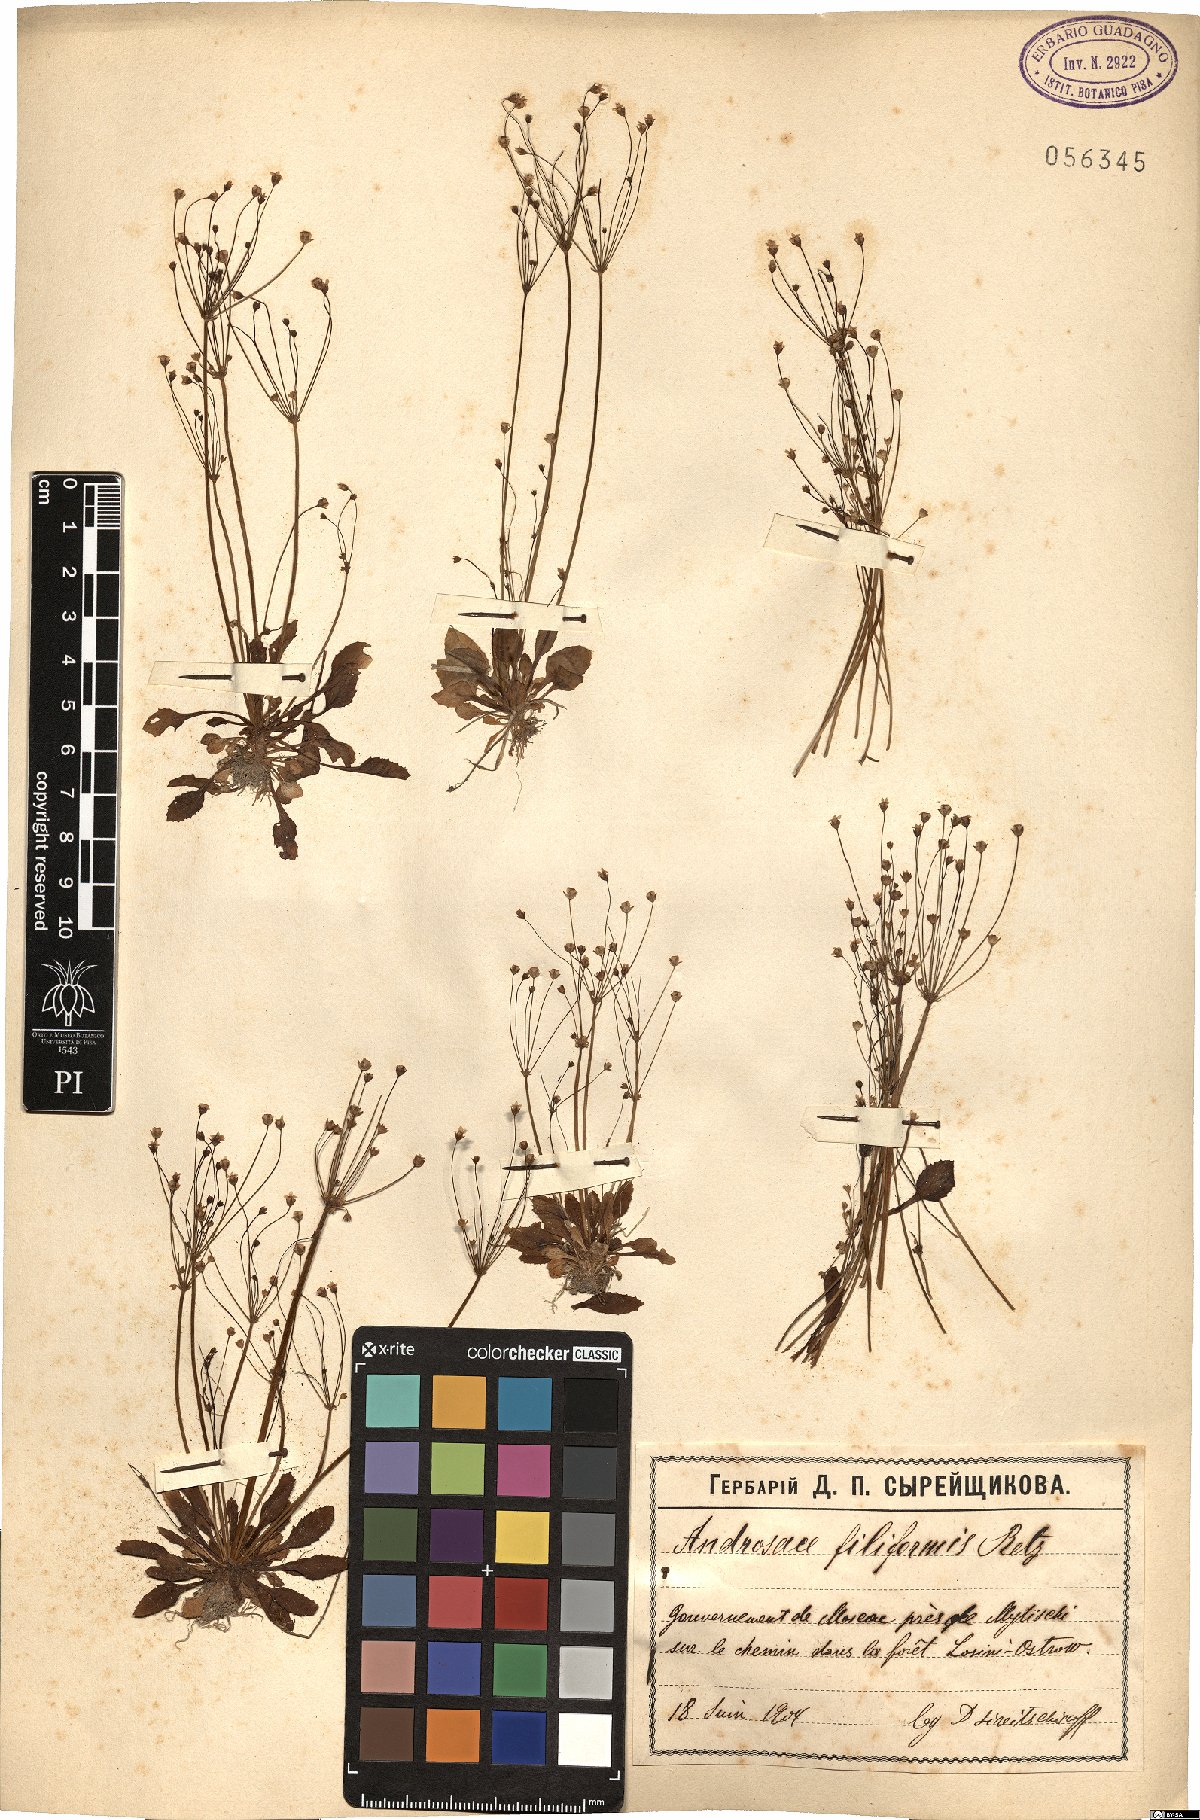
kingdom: Plantae
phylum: Tracheophyta
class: Magnoliopsida
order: Ericales
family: Primulaceae
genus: Androsace
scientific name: Androsace filiformis
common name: Filiform rock jasmine
